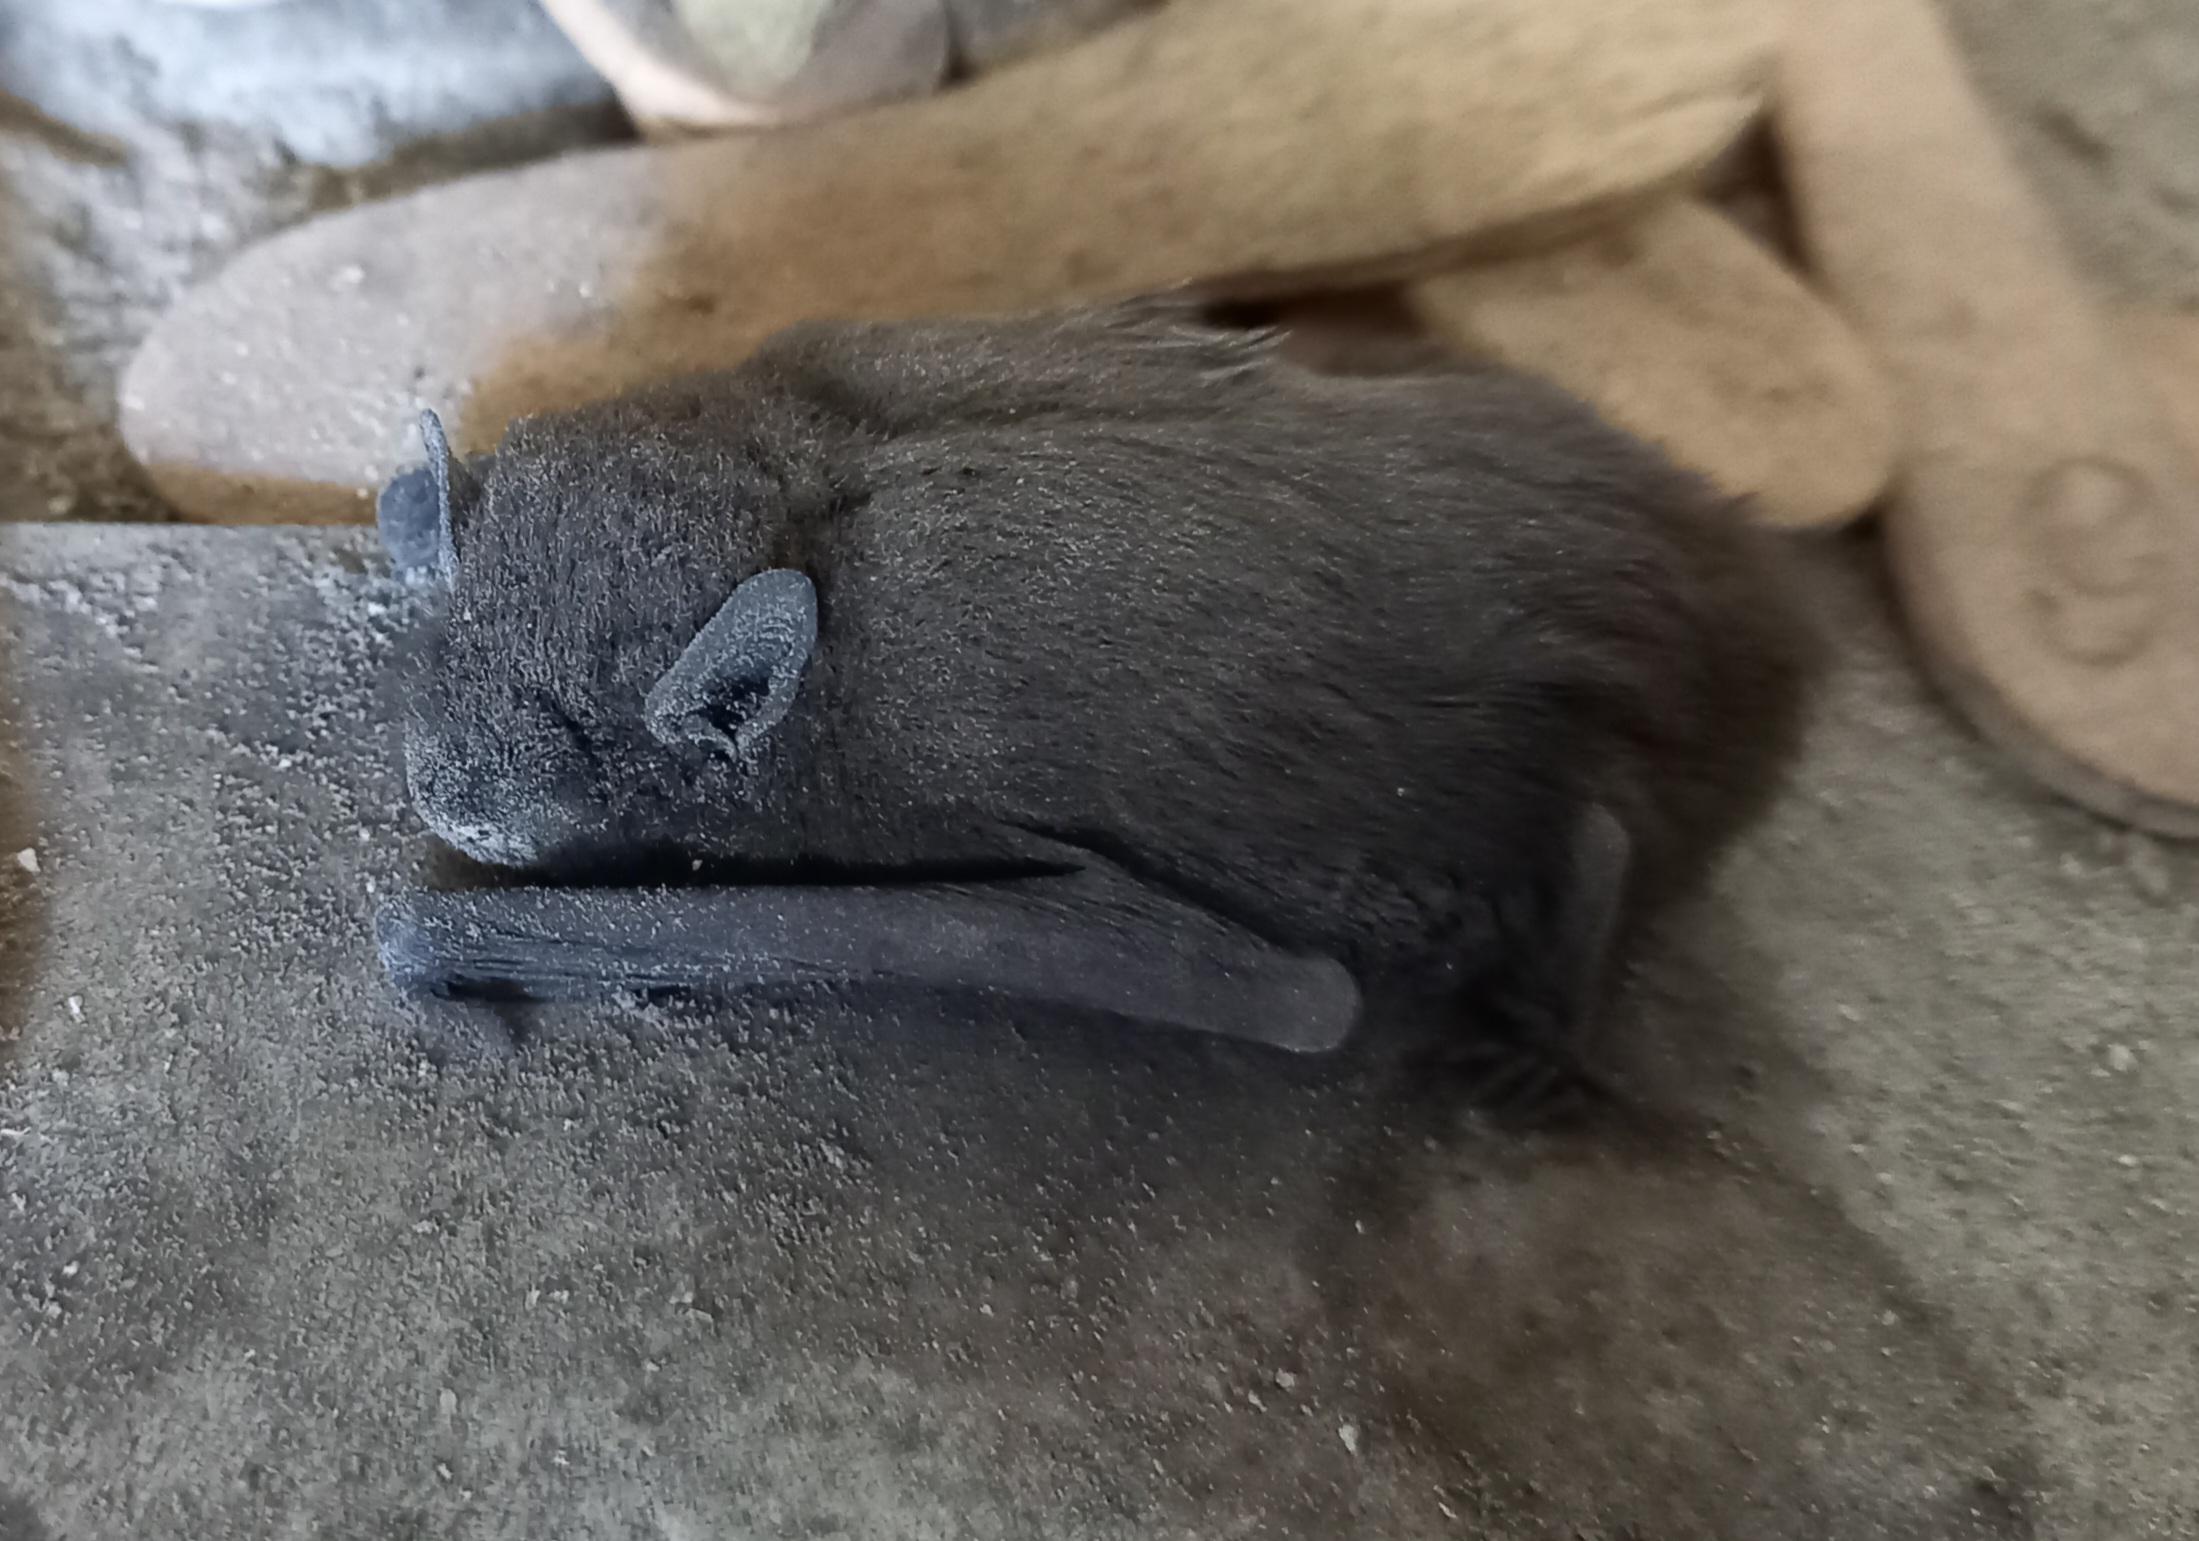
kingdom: Animalia
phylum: Chordata
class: Mammalia
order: Chiroptera
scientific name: Chiroptera
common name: Flagermus
